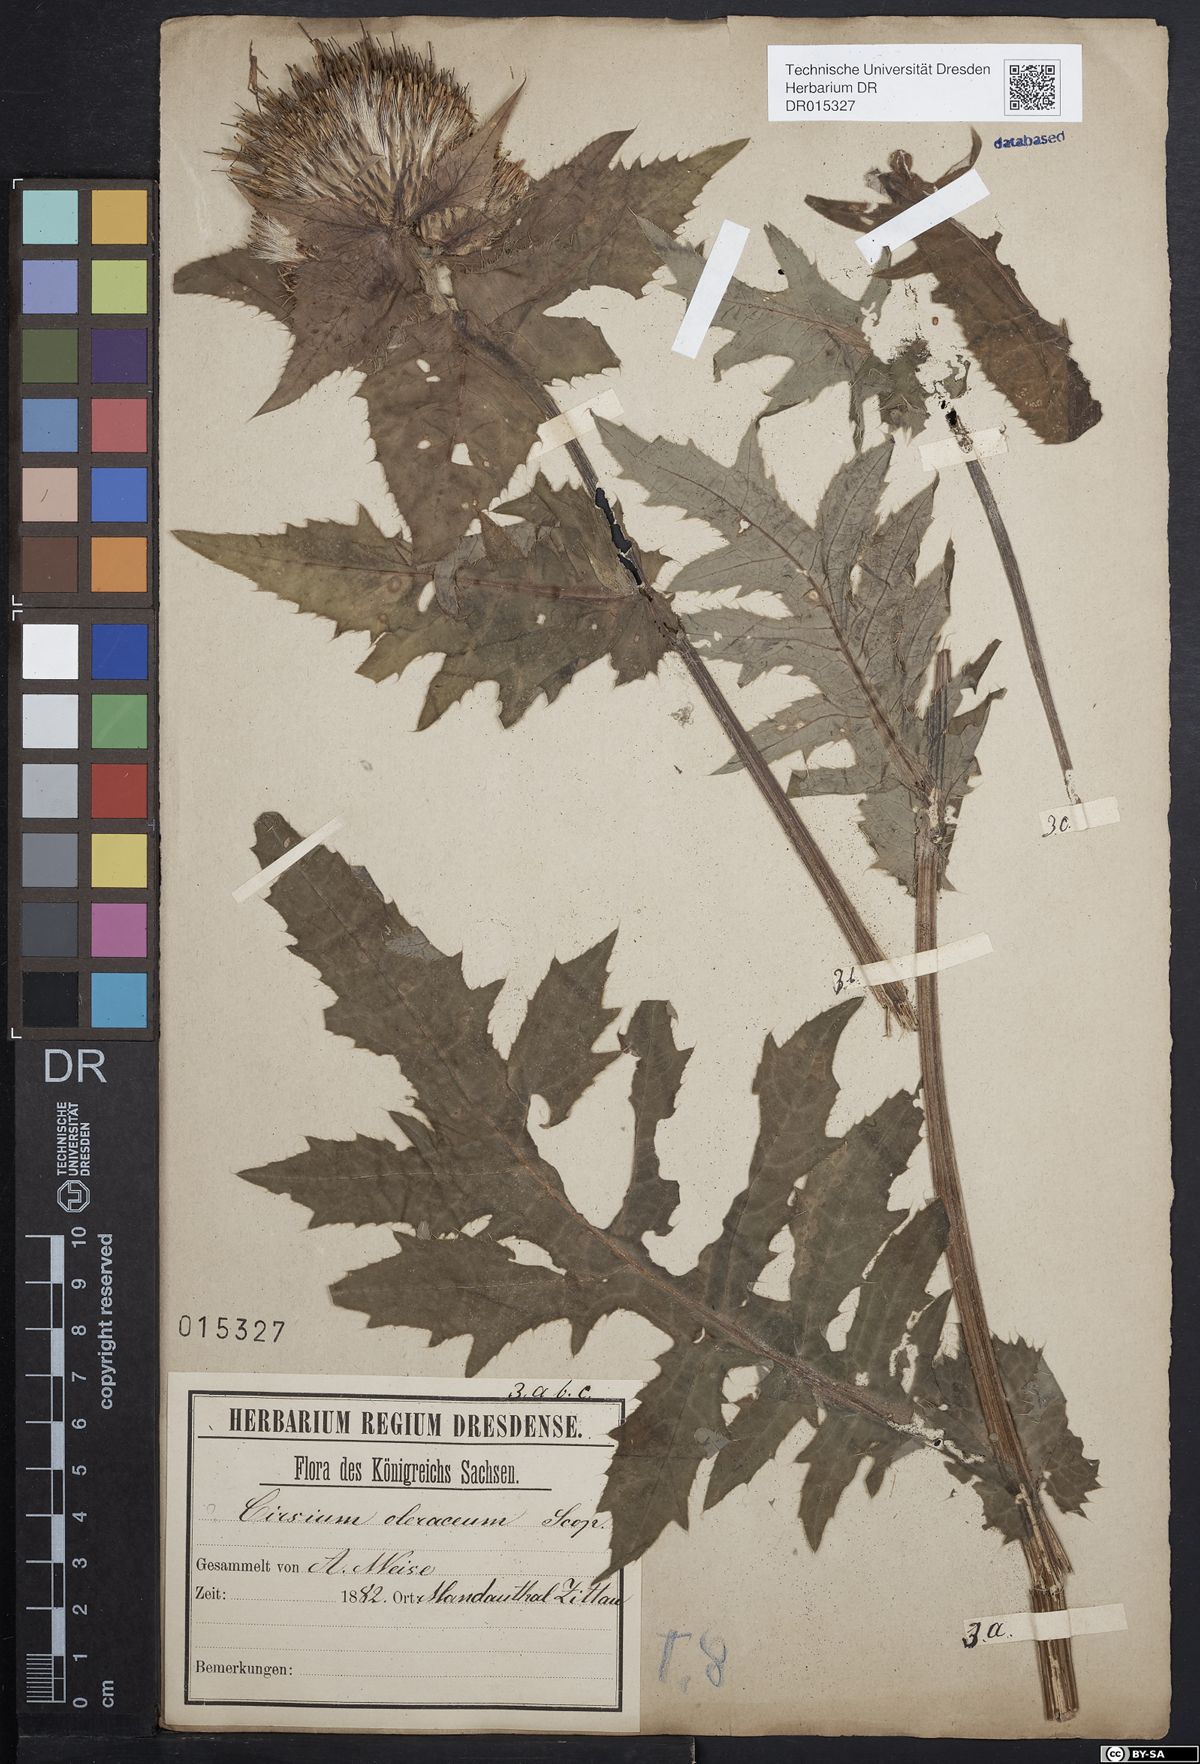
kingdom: Plantae
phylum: Tracheophyta
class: Magnoliopsida
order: Asterales
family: Asteraceae
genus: Cirsium
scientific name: Cirsium affine
